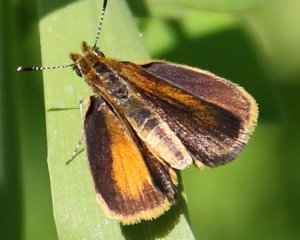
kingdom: Animalia
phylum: Arthropoda
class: Insecta
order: Lepidoptera
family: Hesperiidae
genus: Ancyloxypha
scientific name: Ancyloxypha numitor
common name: Least Skipper
